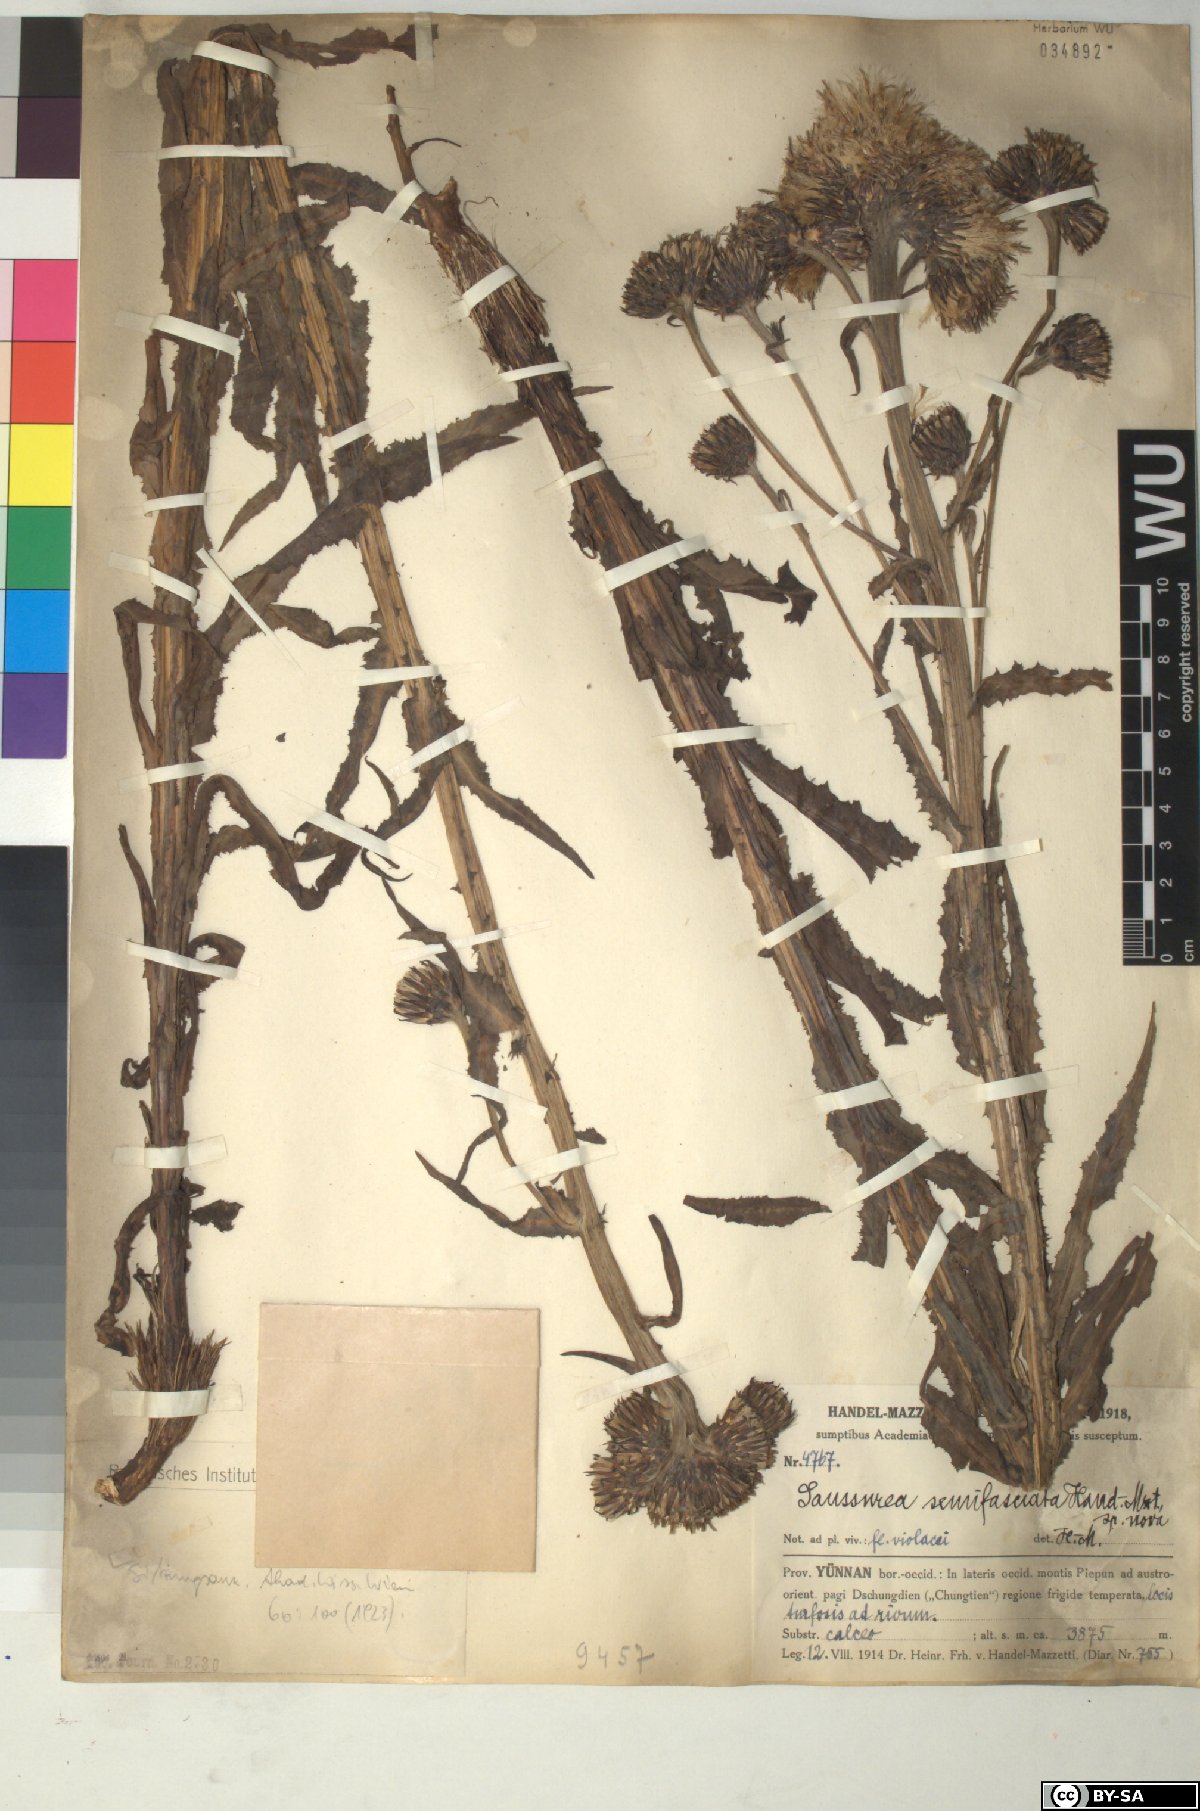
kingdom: Plantae
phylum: Tracheophyta
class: Magnoliopsida
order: Asterales
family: Asteraceae
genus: Saussurea
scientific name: Saussurea semifasciata
